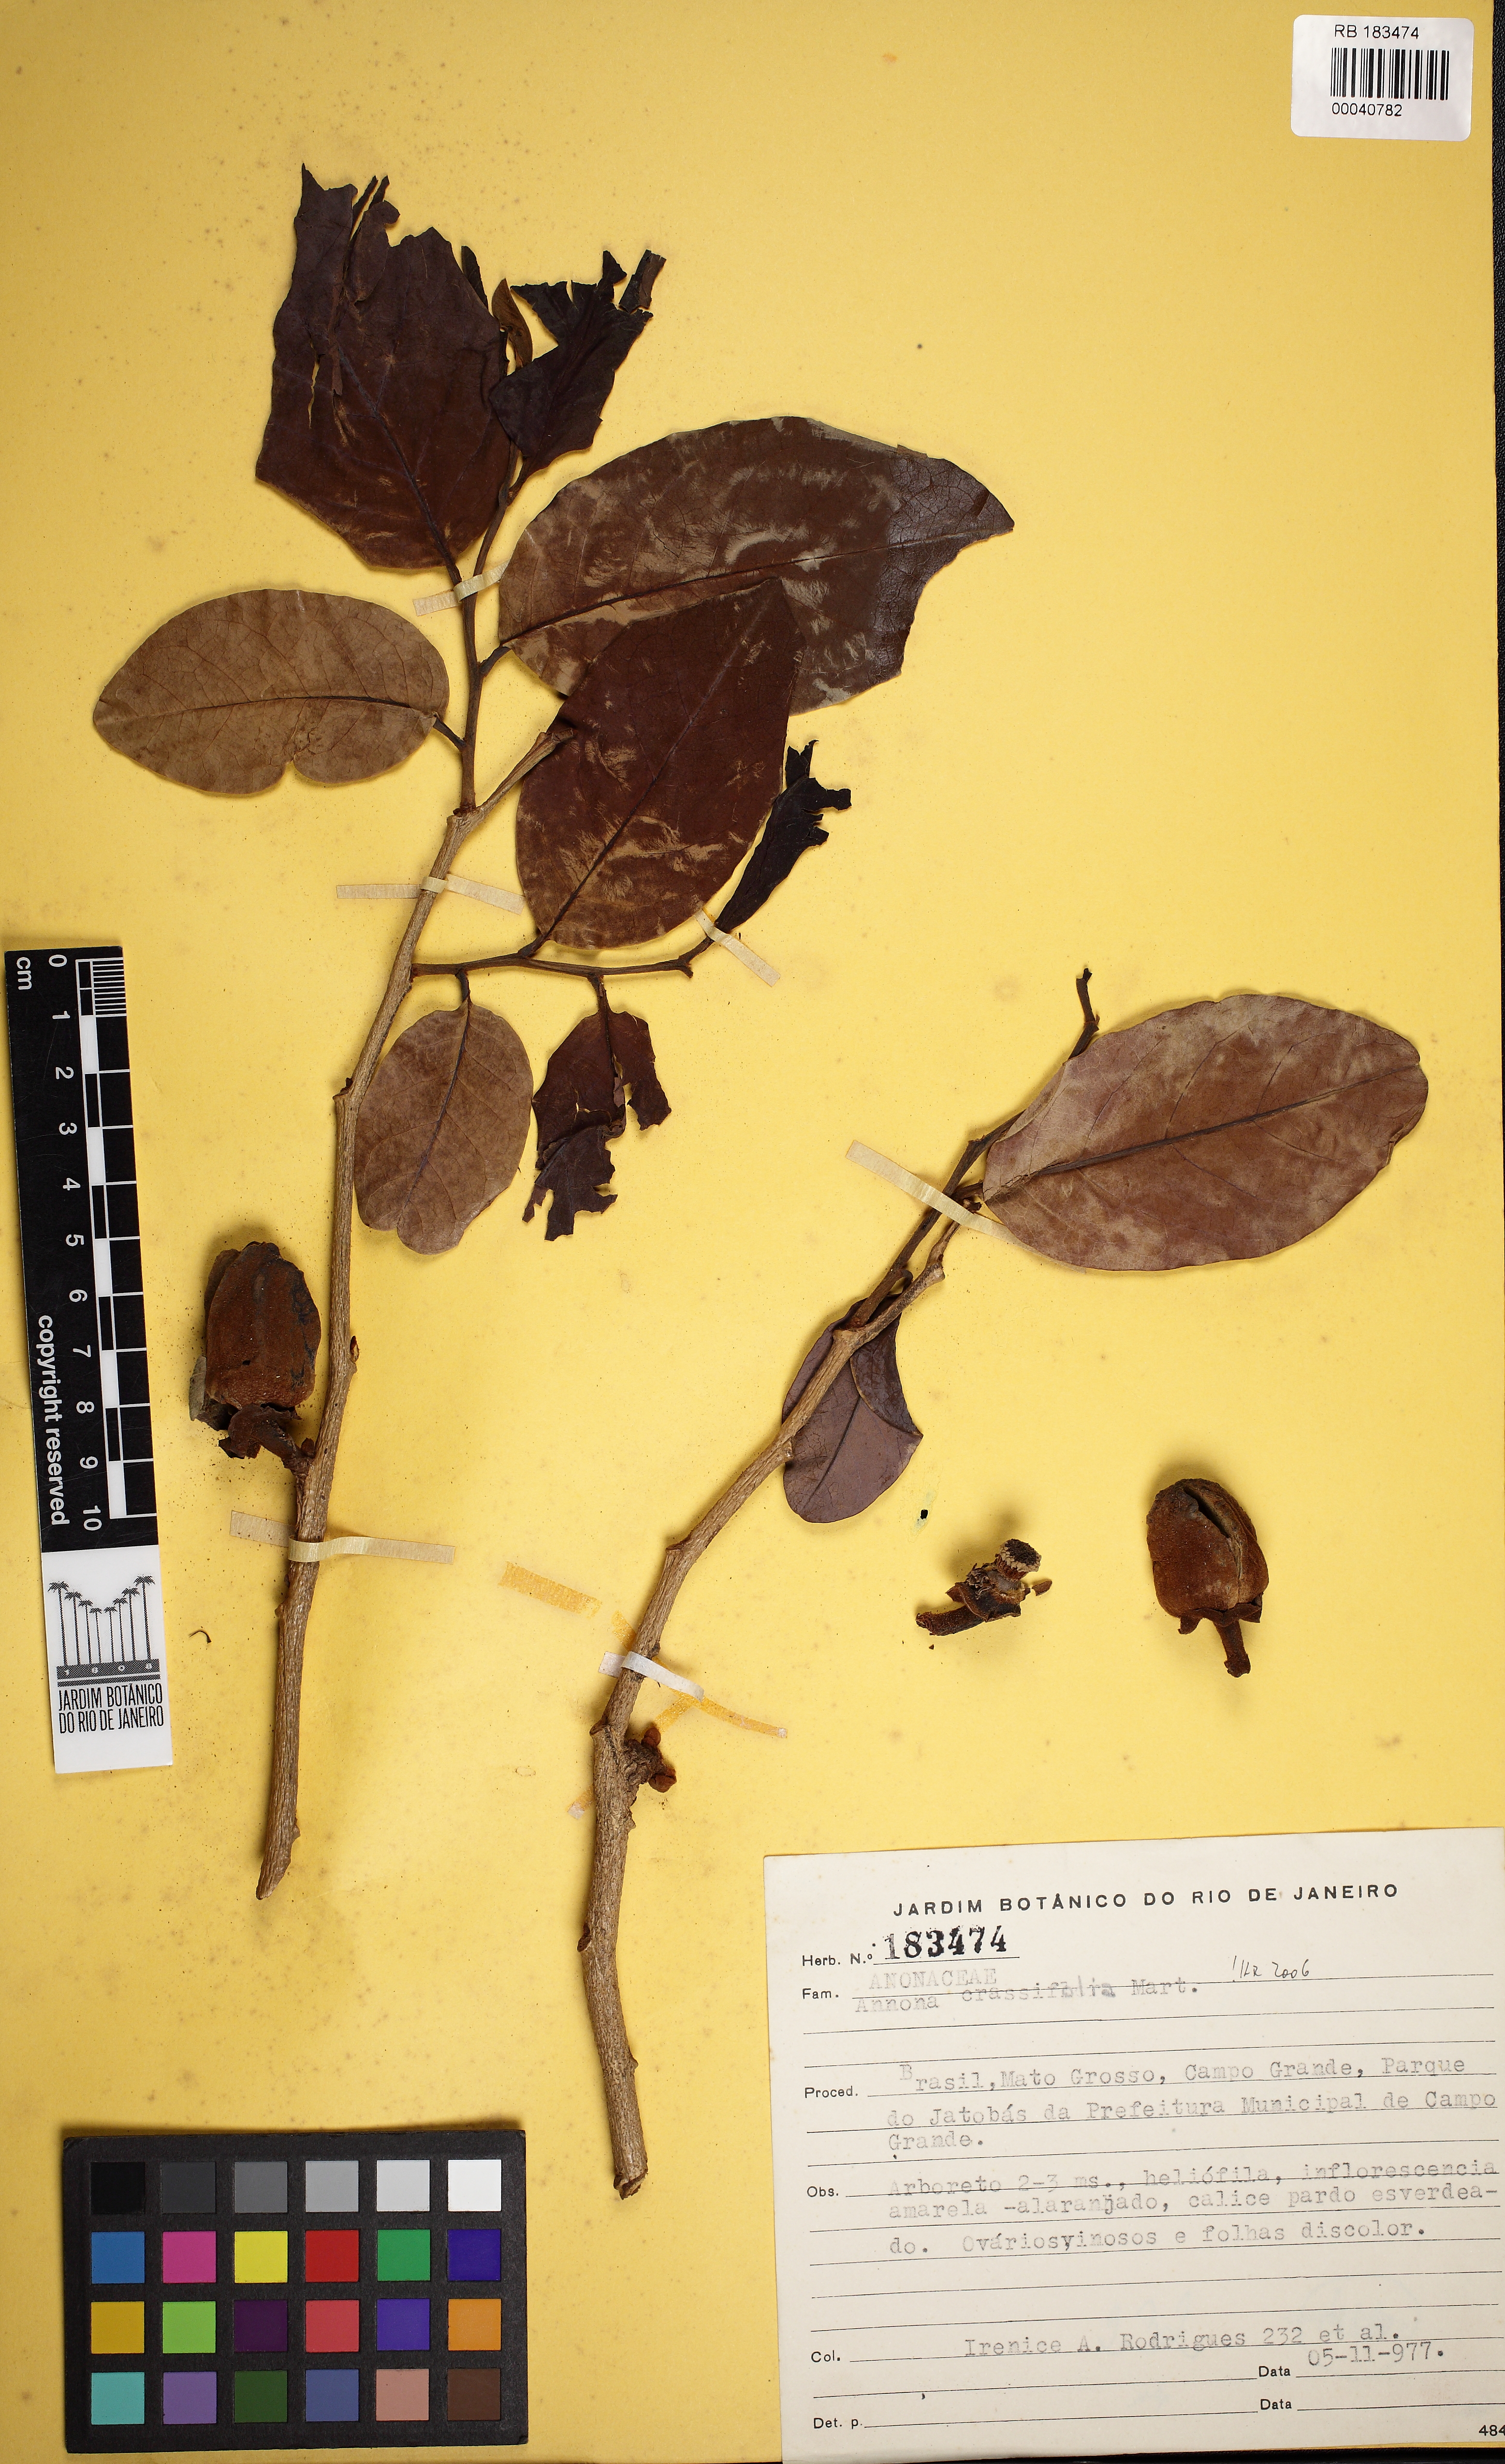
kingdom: Plantae
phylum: Tracheophyta
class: Magnoliopsida
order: Magnoliales
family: Annonaceae
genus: Annona
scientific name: Annona crassifolia
